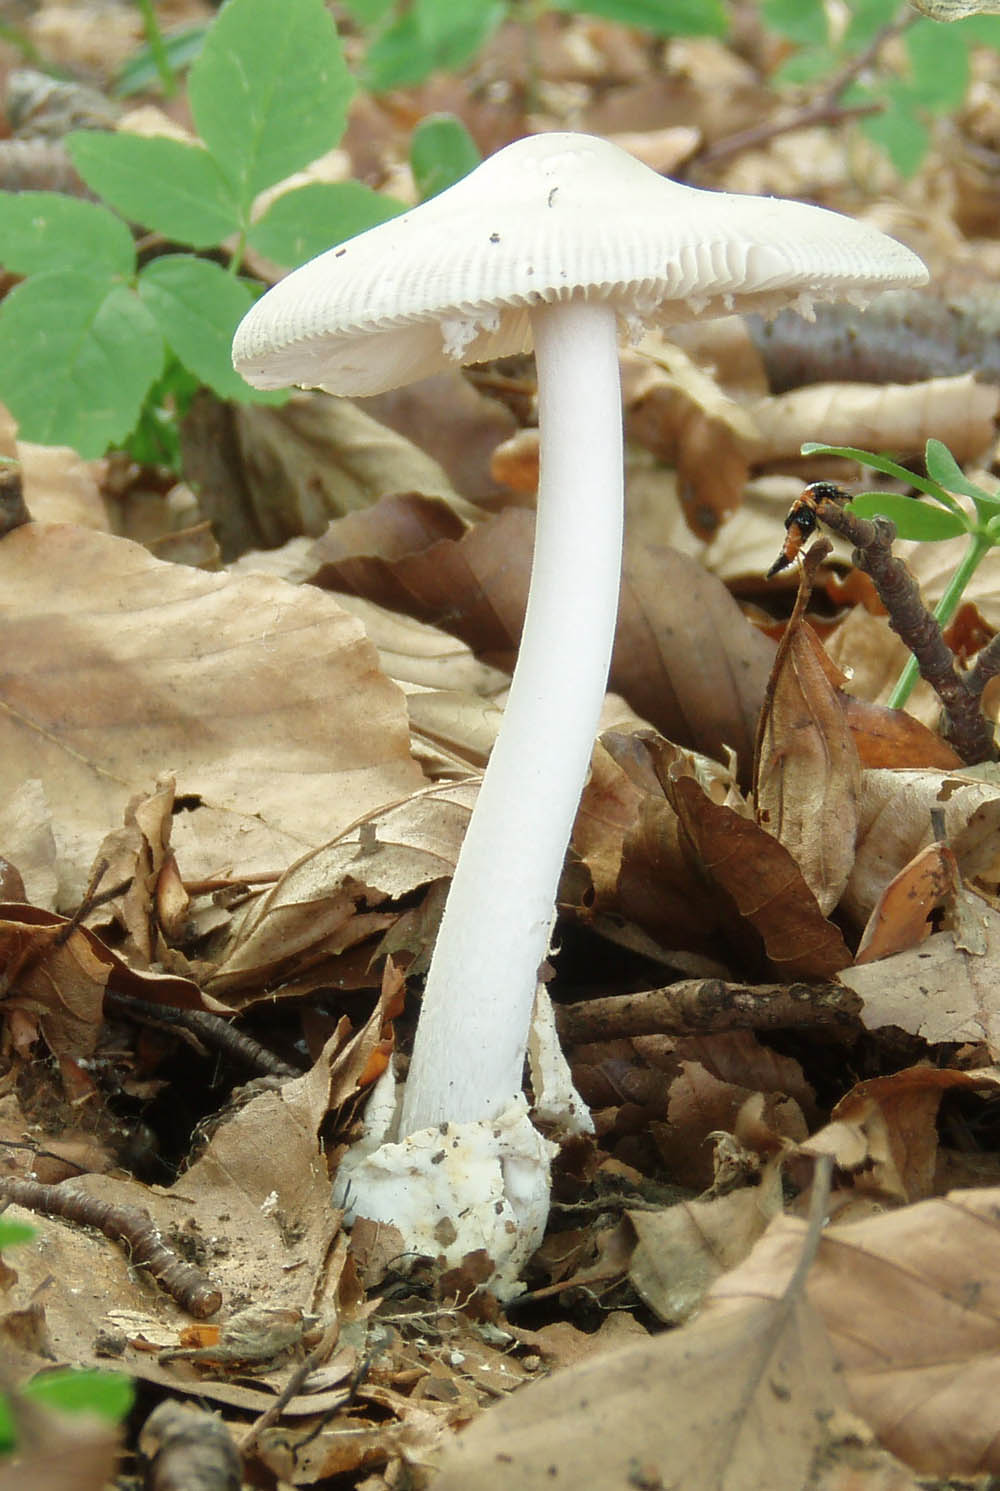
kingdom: Fungi
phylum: Basidiomycota
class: Agaricomycetes
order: Agaricales
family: Amanitaceae
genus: Amanita
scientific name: Amanita vaginata
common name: grå kam-fluesvamp
